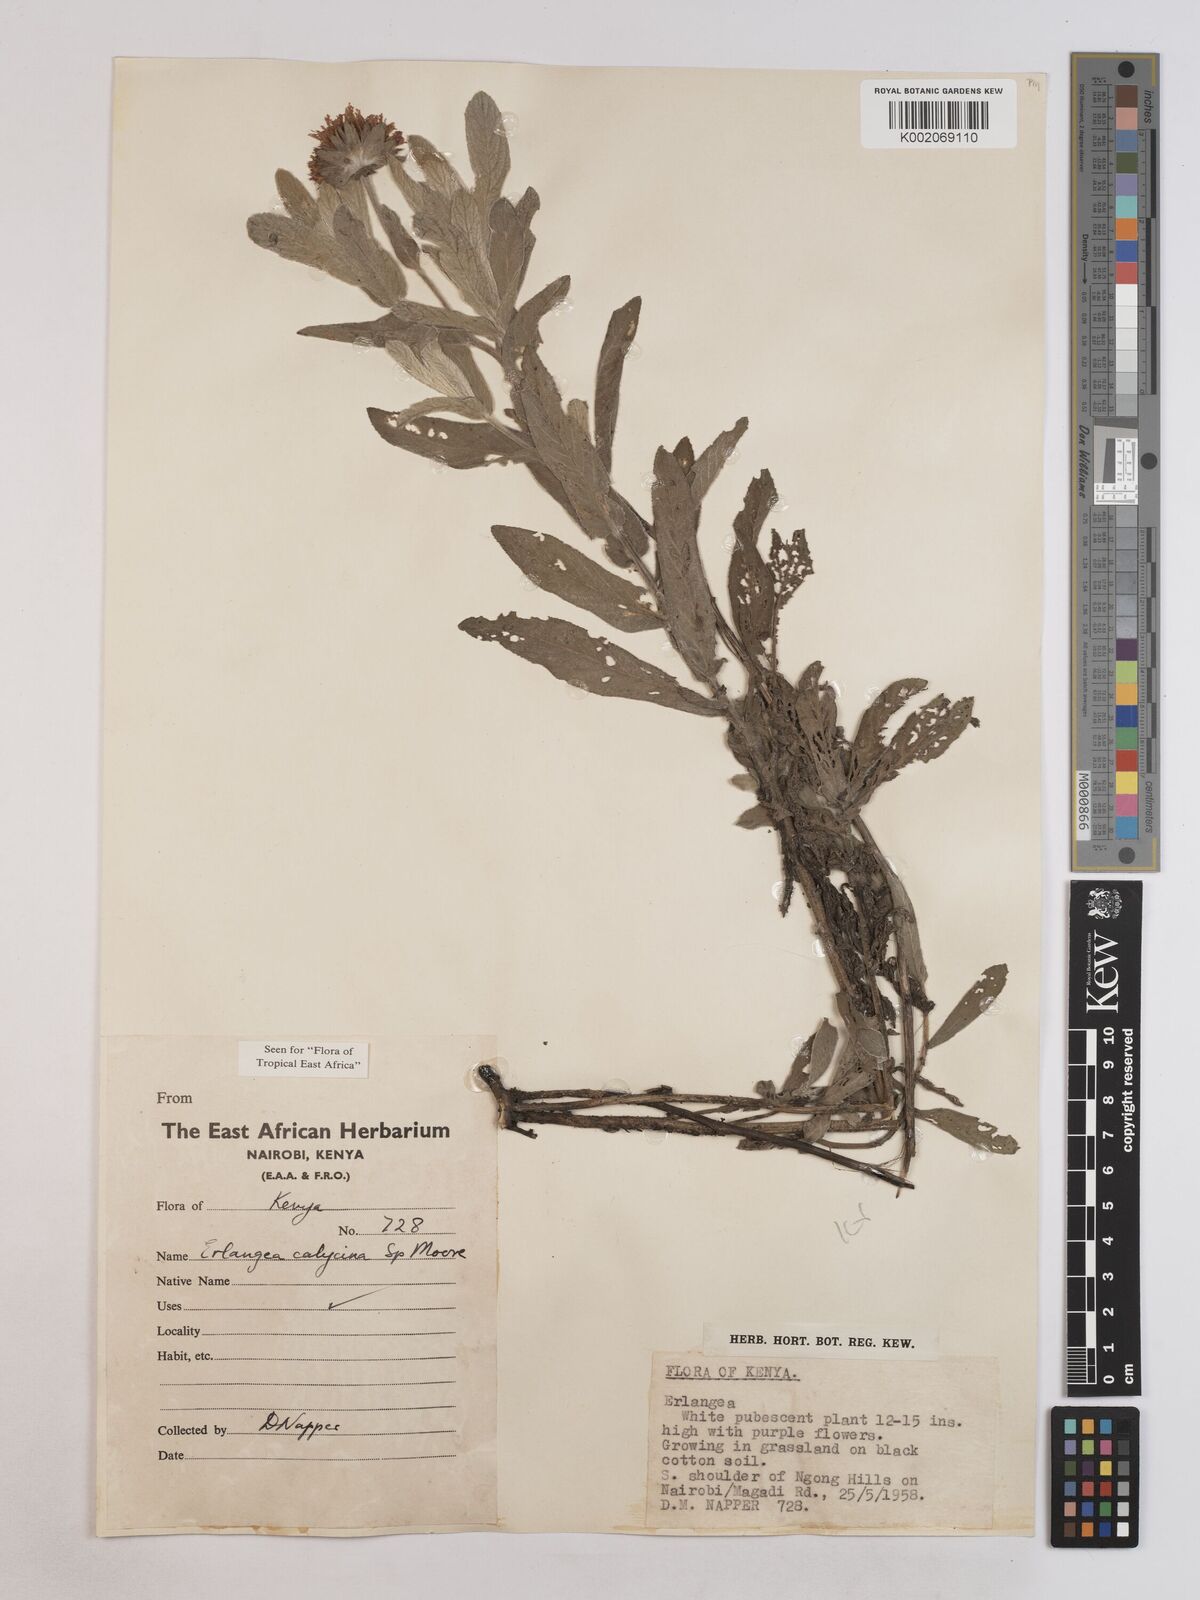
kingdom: Plantae
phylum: Tracheophyta
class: Magnoliopsida
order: Asterales
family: Asteraceae
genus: Erlangea
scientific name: Erlangea calycina
